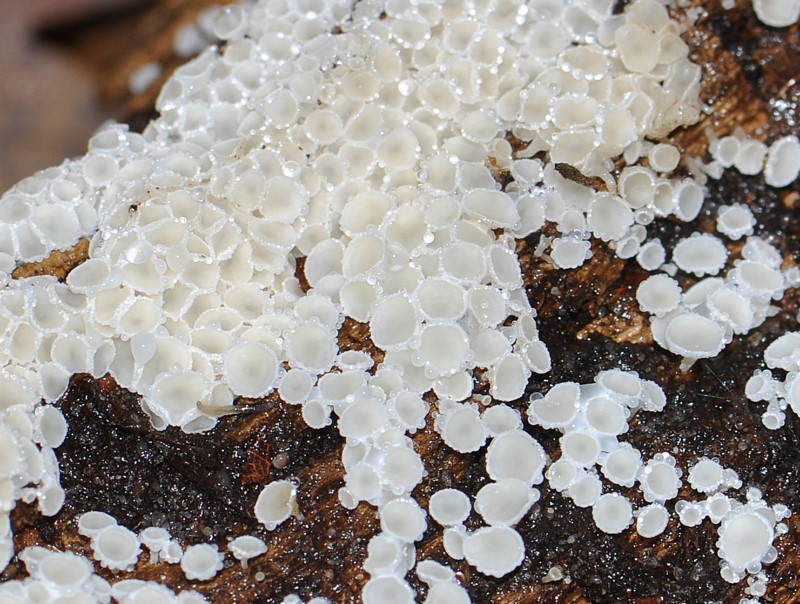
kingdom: Fungi
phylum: Ascomycota
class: Leotiomycetes
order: Helotiales
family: Lachnaceae
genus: Dasyscyphella
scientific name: Dasyscyphella nivea
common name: hvid frynseskive
